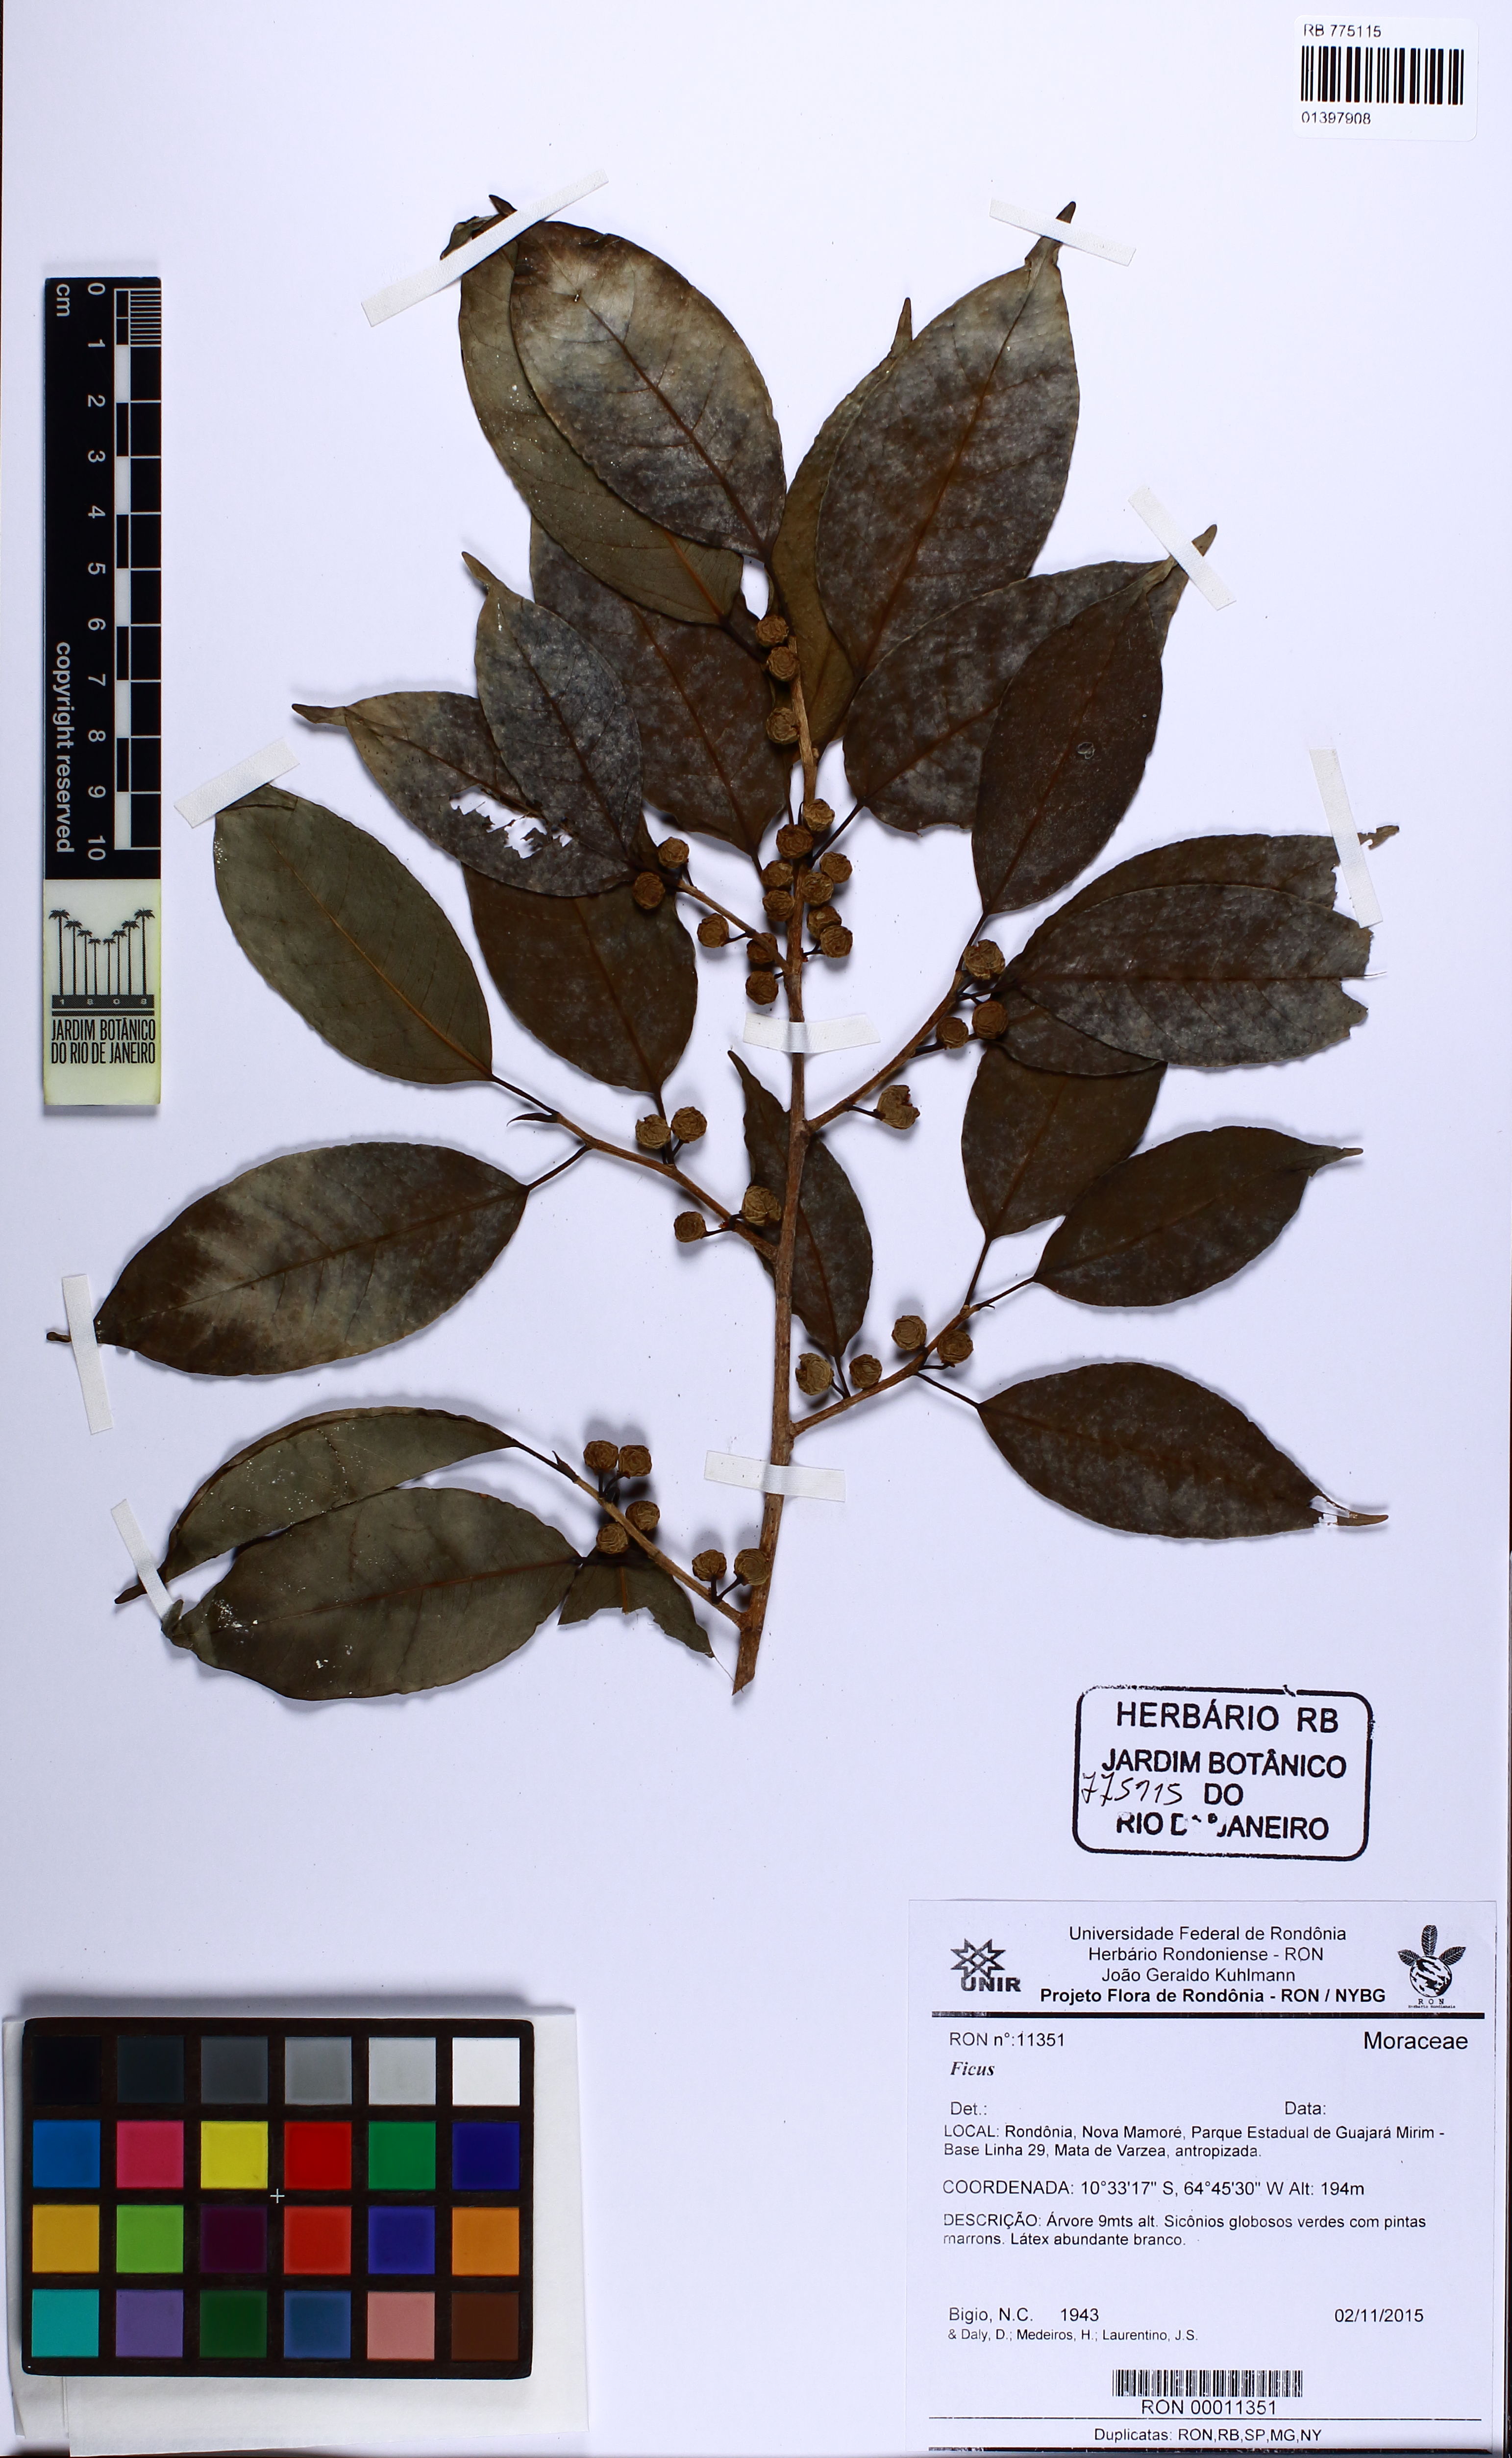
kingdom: Plantae
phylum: Tracheophyta
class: Magnoliopsida
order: Rosales
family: Moraceae
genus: Ficus
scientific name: Ficus pertusa
